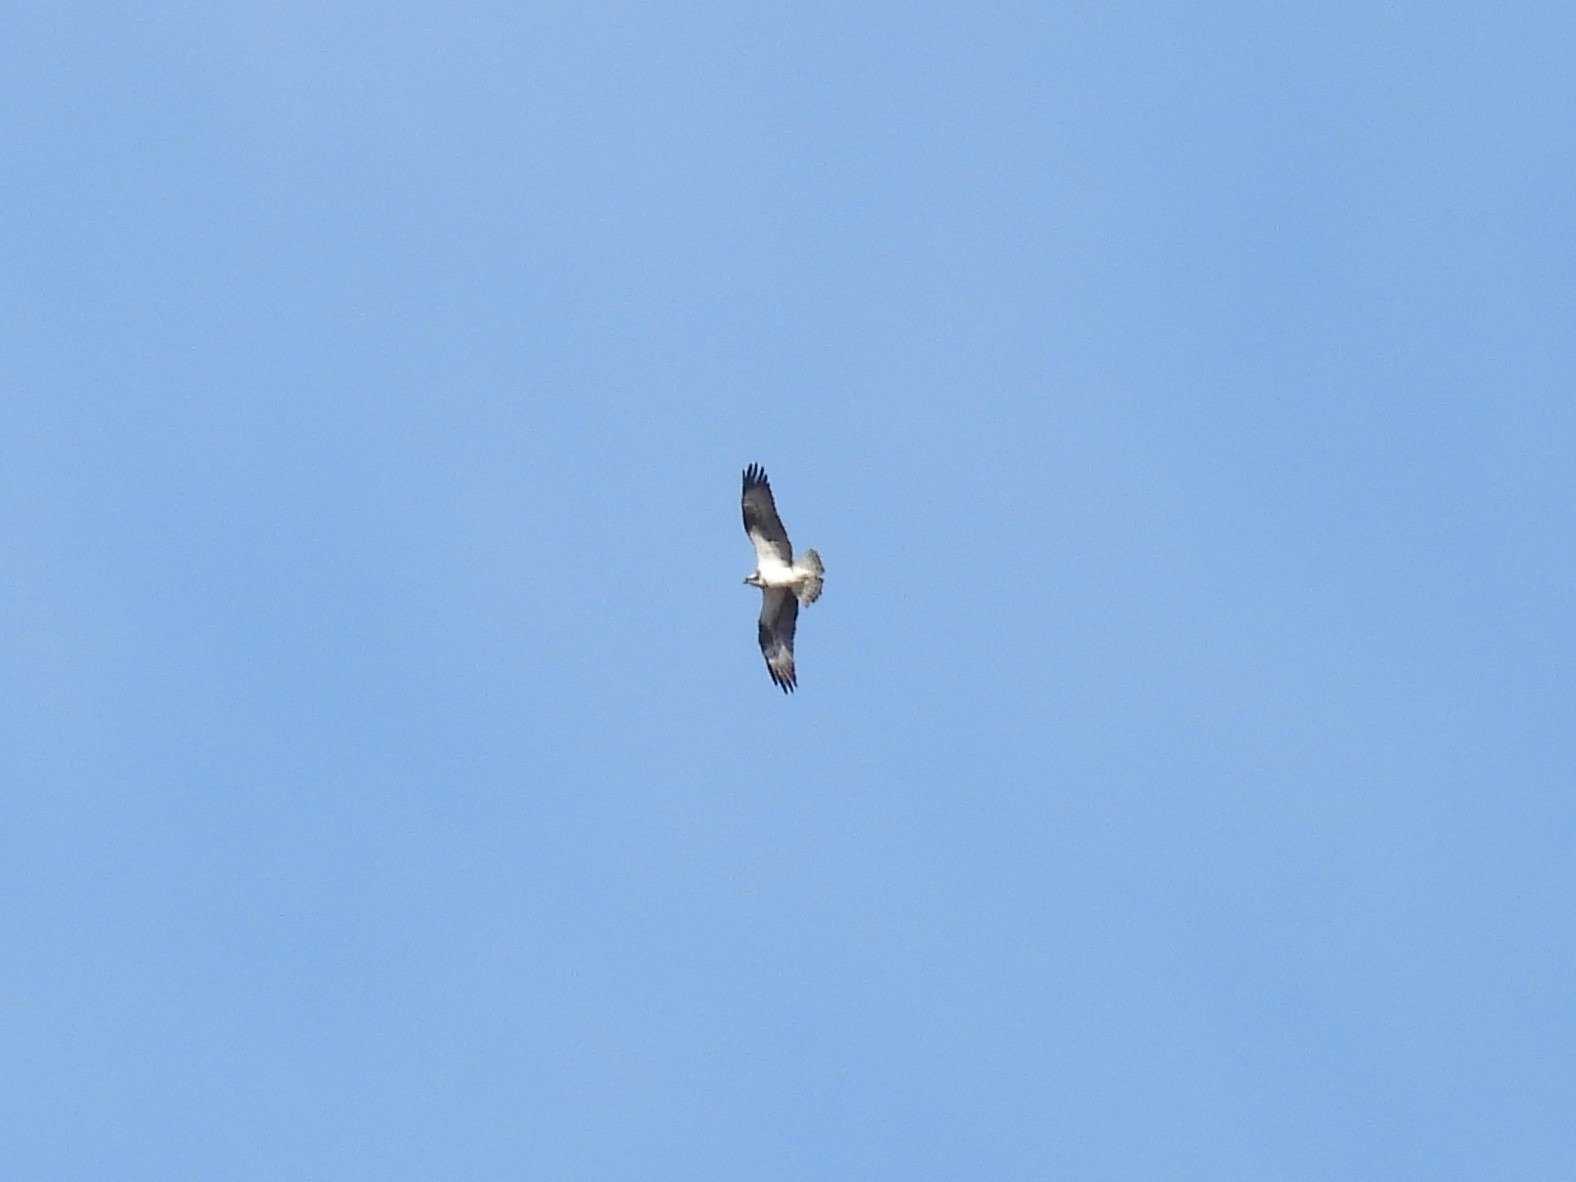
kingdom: Animalia
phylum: Chordata
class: Aves
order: Accipitriformes
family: Pandionidae
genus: Pandion
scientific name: Pandion haliaetus
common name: Fiskeørn
